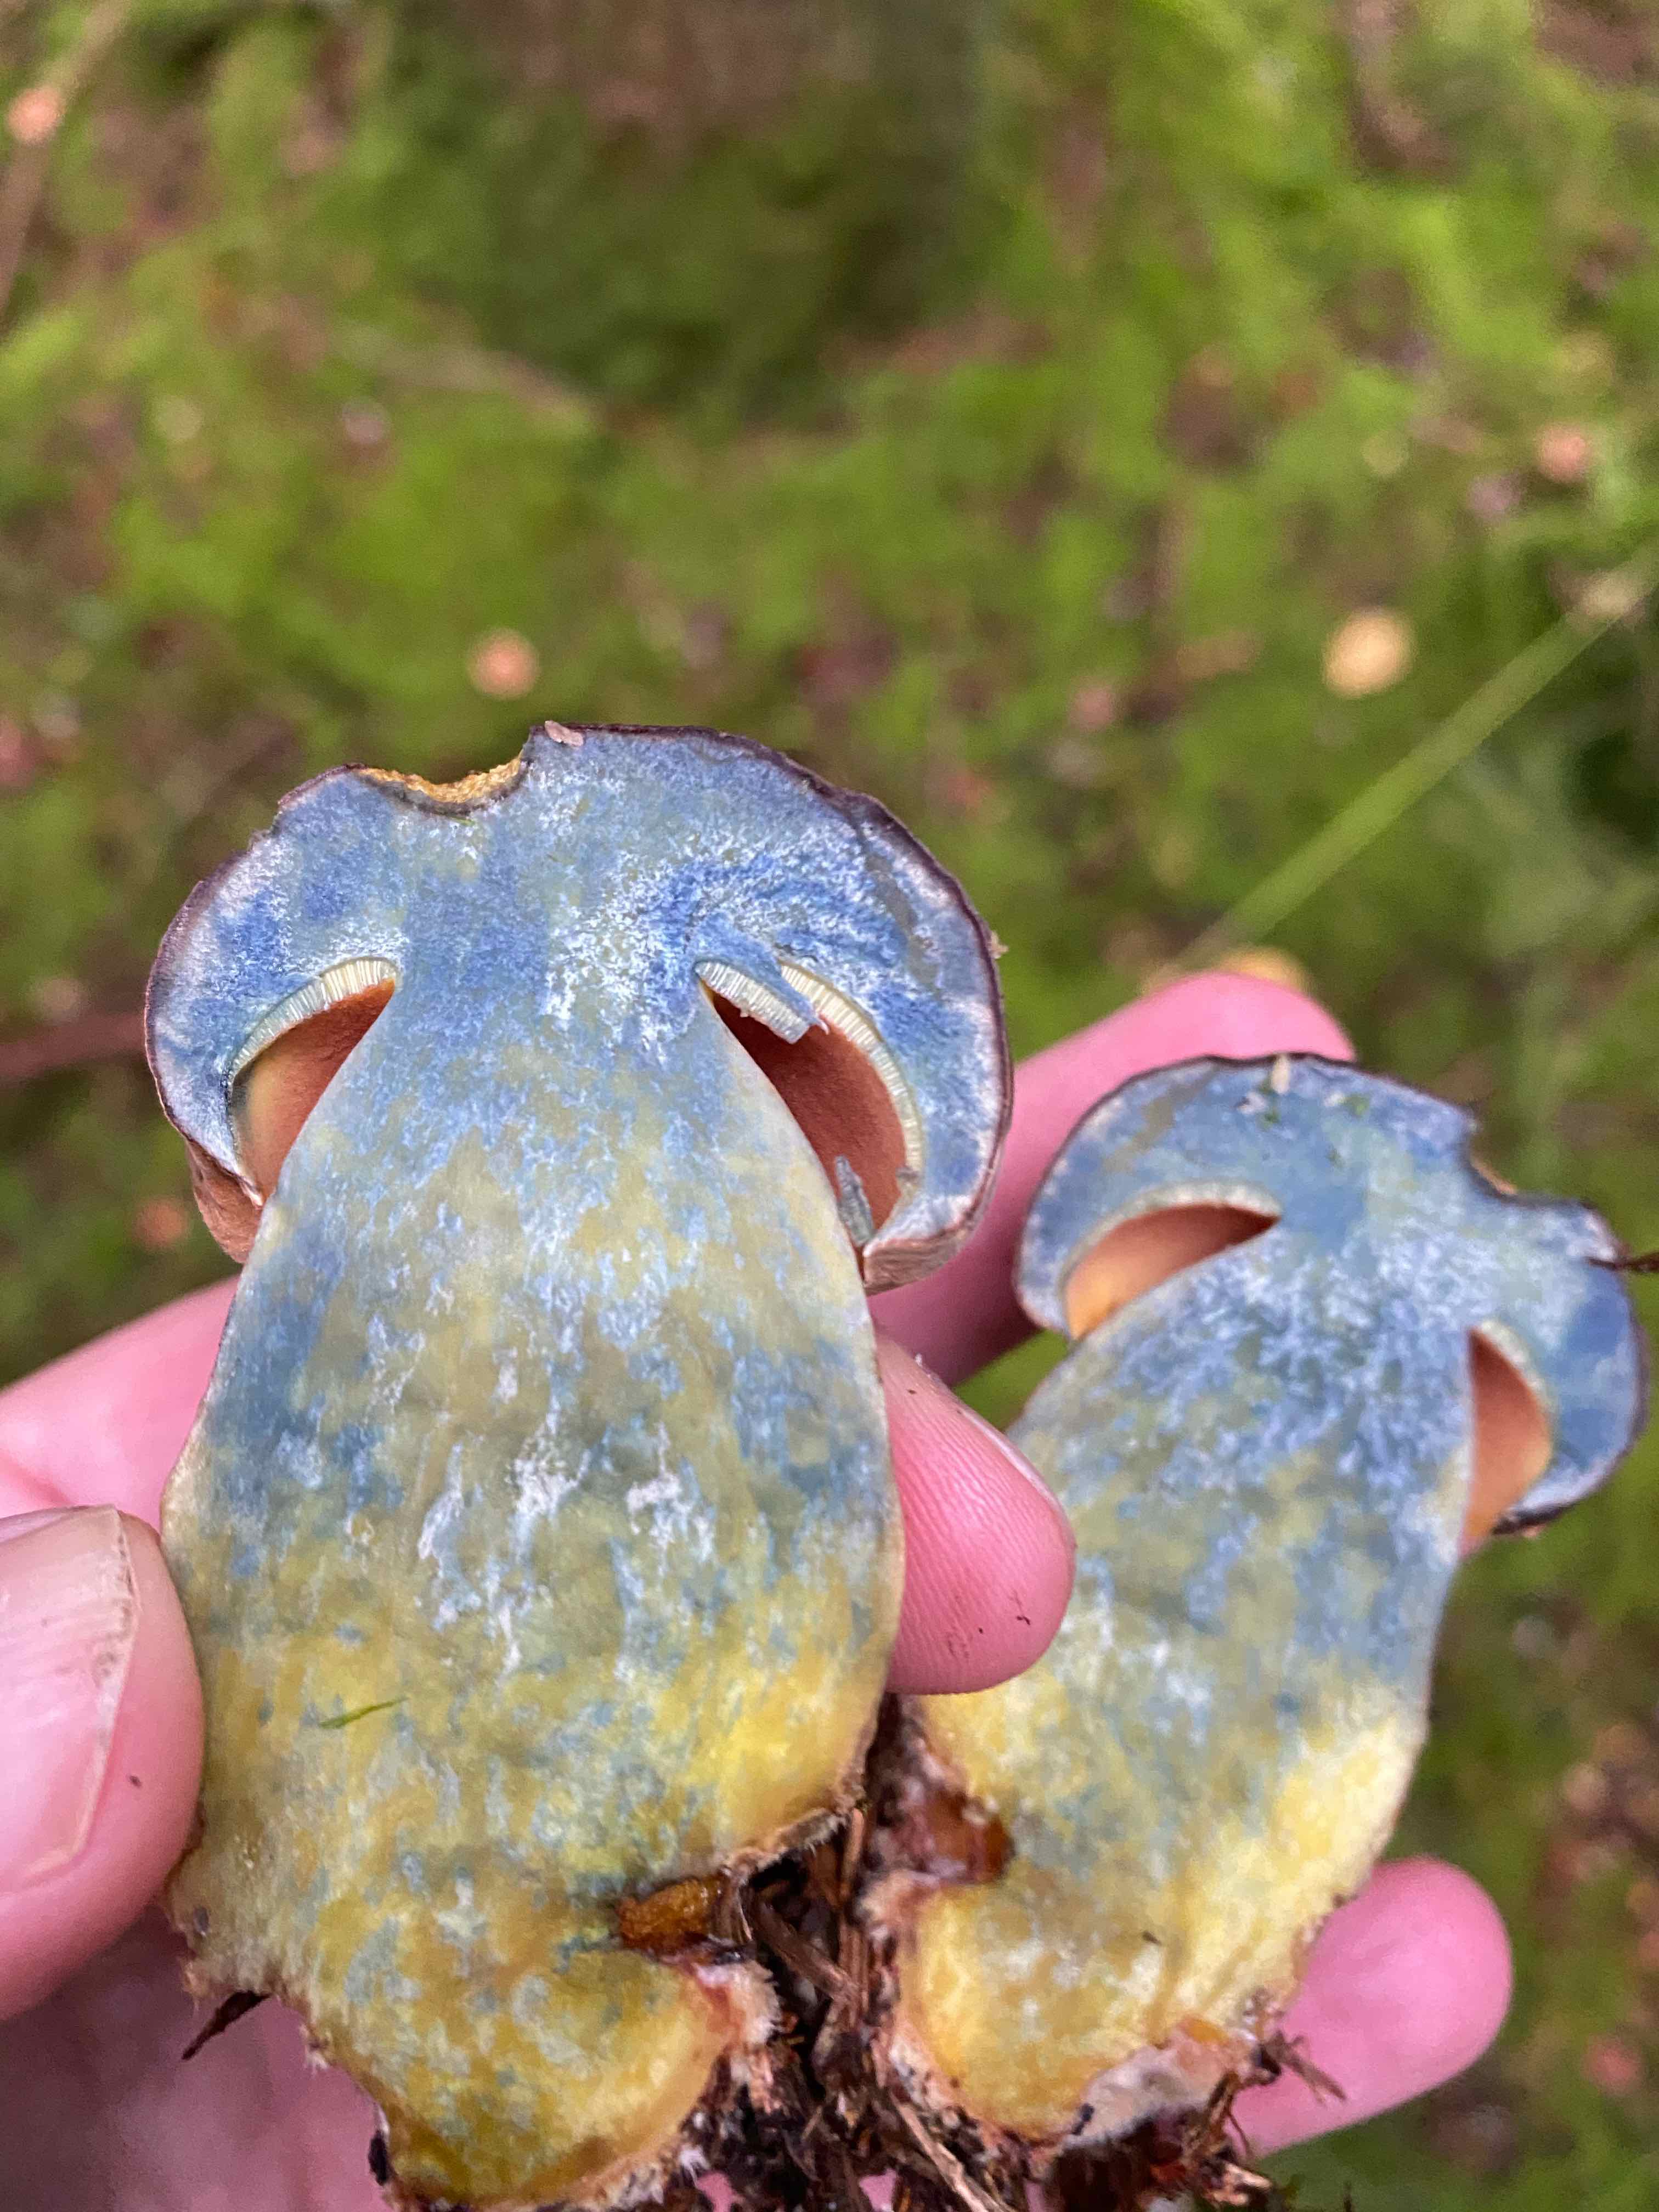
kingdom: Fungi
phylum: Basidiomycota
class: Agaricomycetes
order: Boletales
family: Boletaceae
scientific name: Boletaceae
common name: rørhatfamilien
